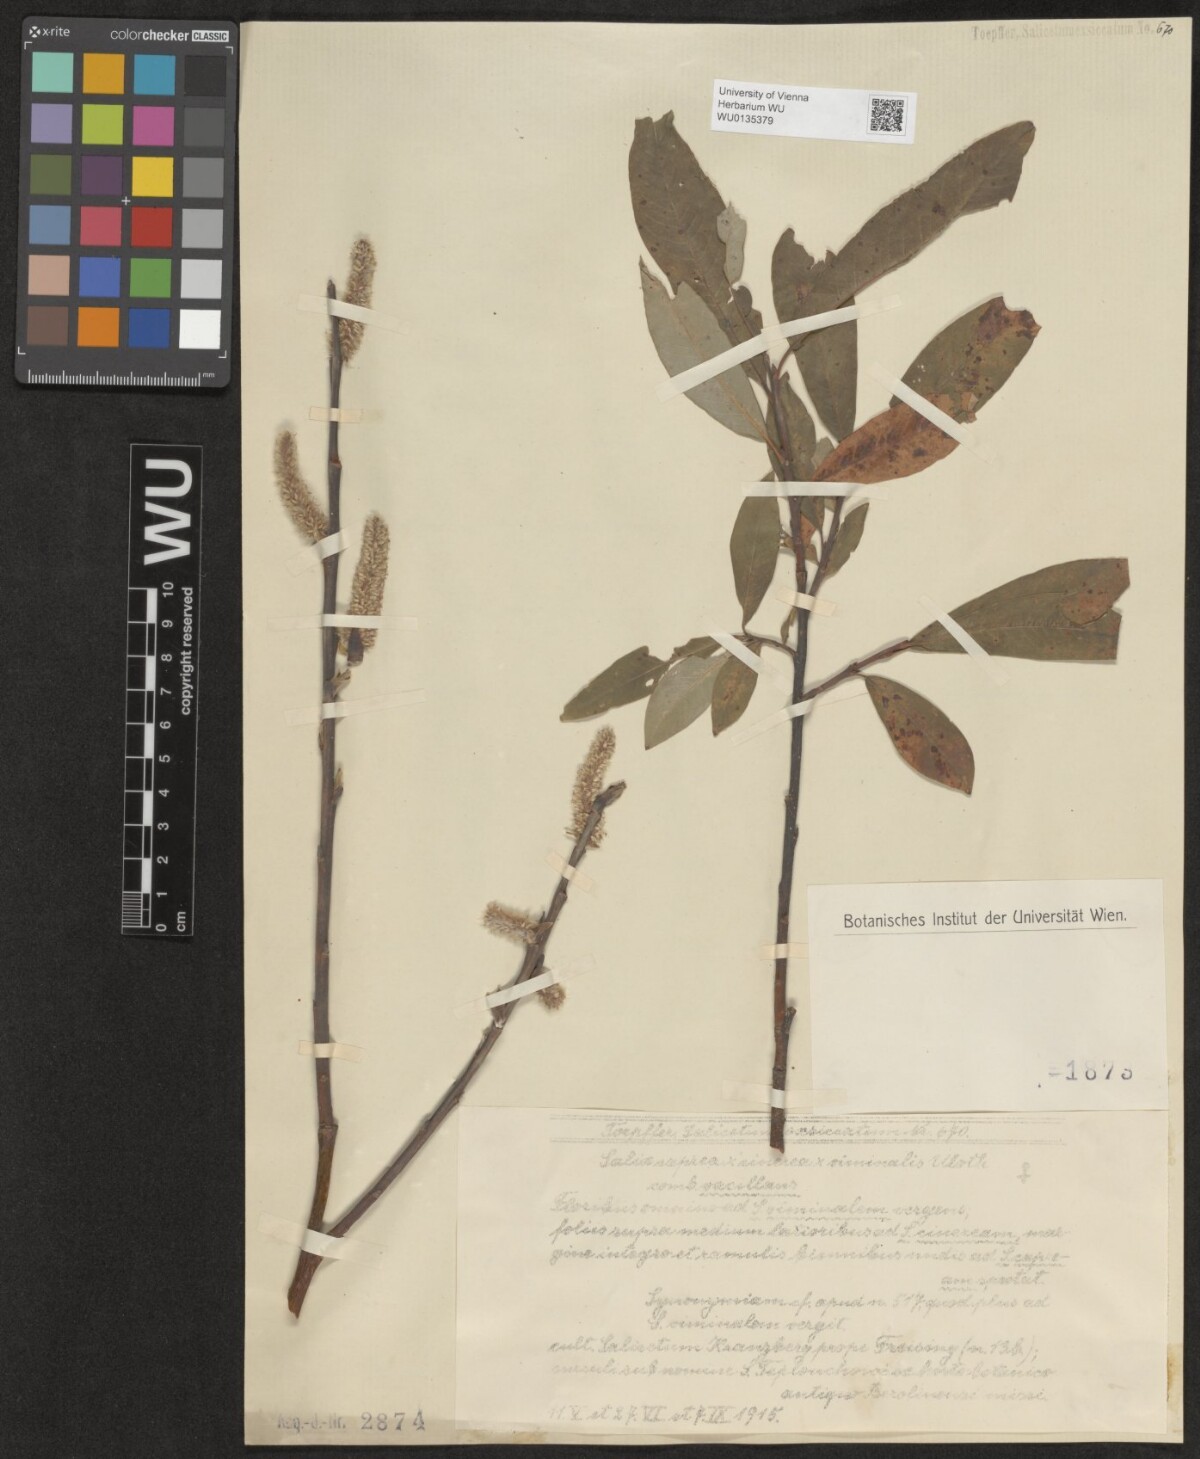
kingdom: Plantae
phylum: Tracheophyta
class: Magnoliopsida
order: Malpighiales
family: Salicaceae
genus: Salix
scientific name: Salix
